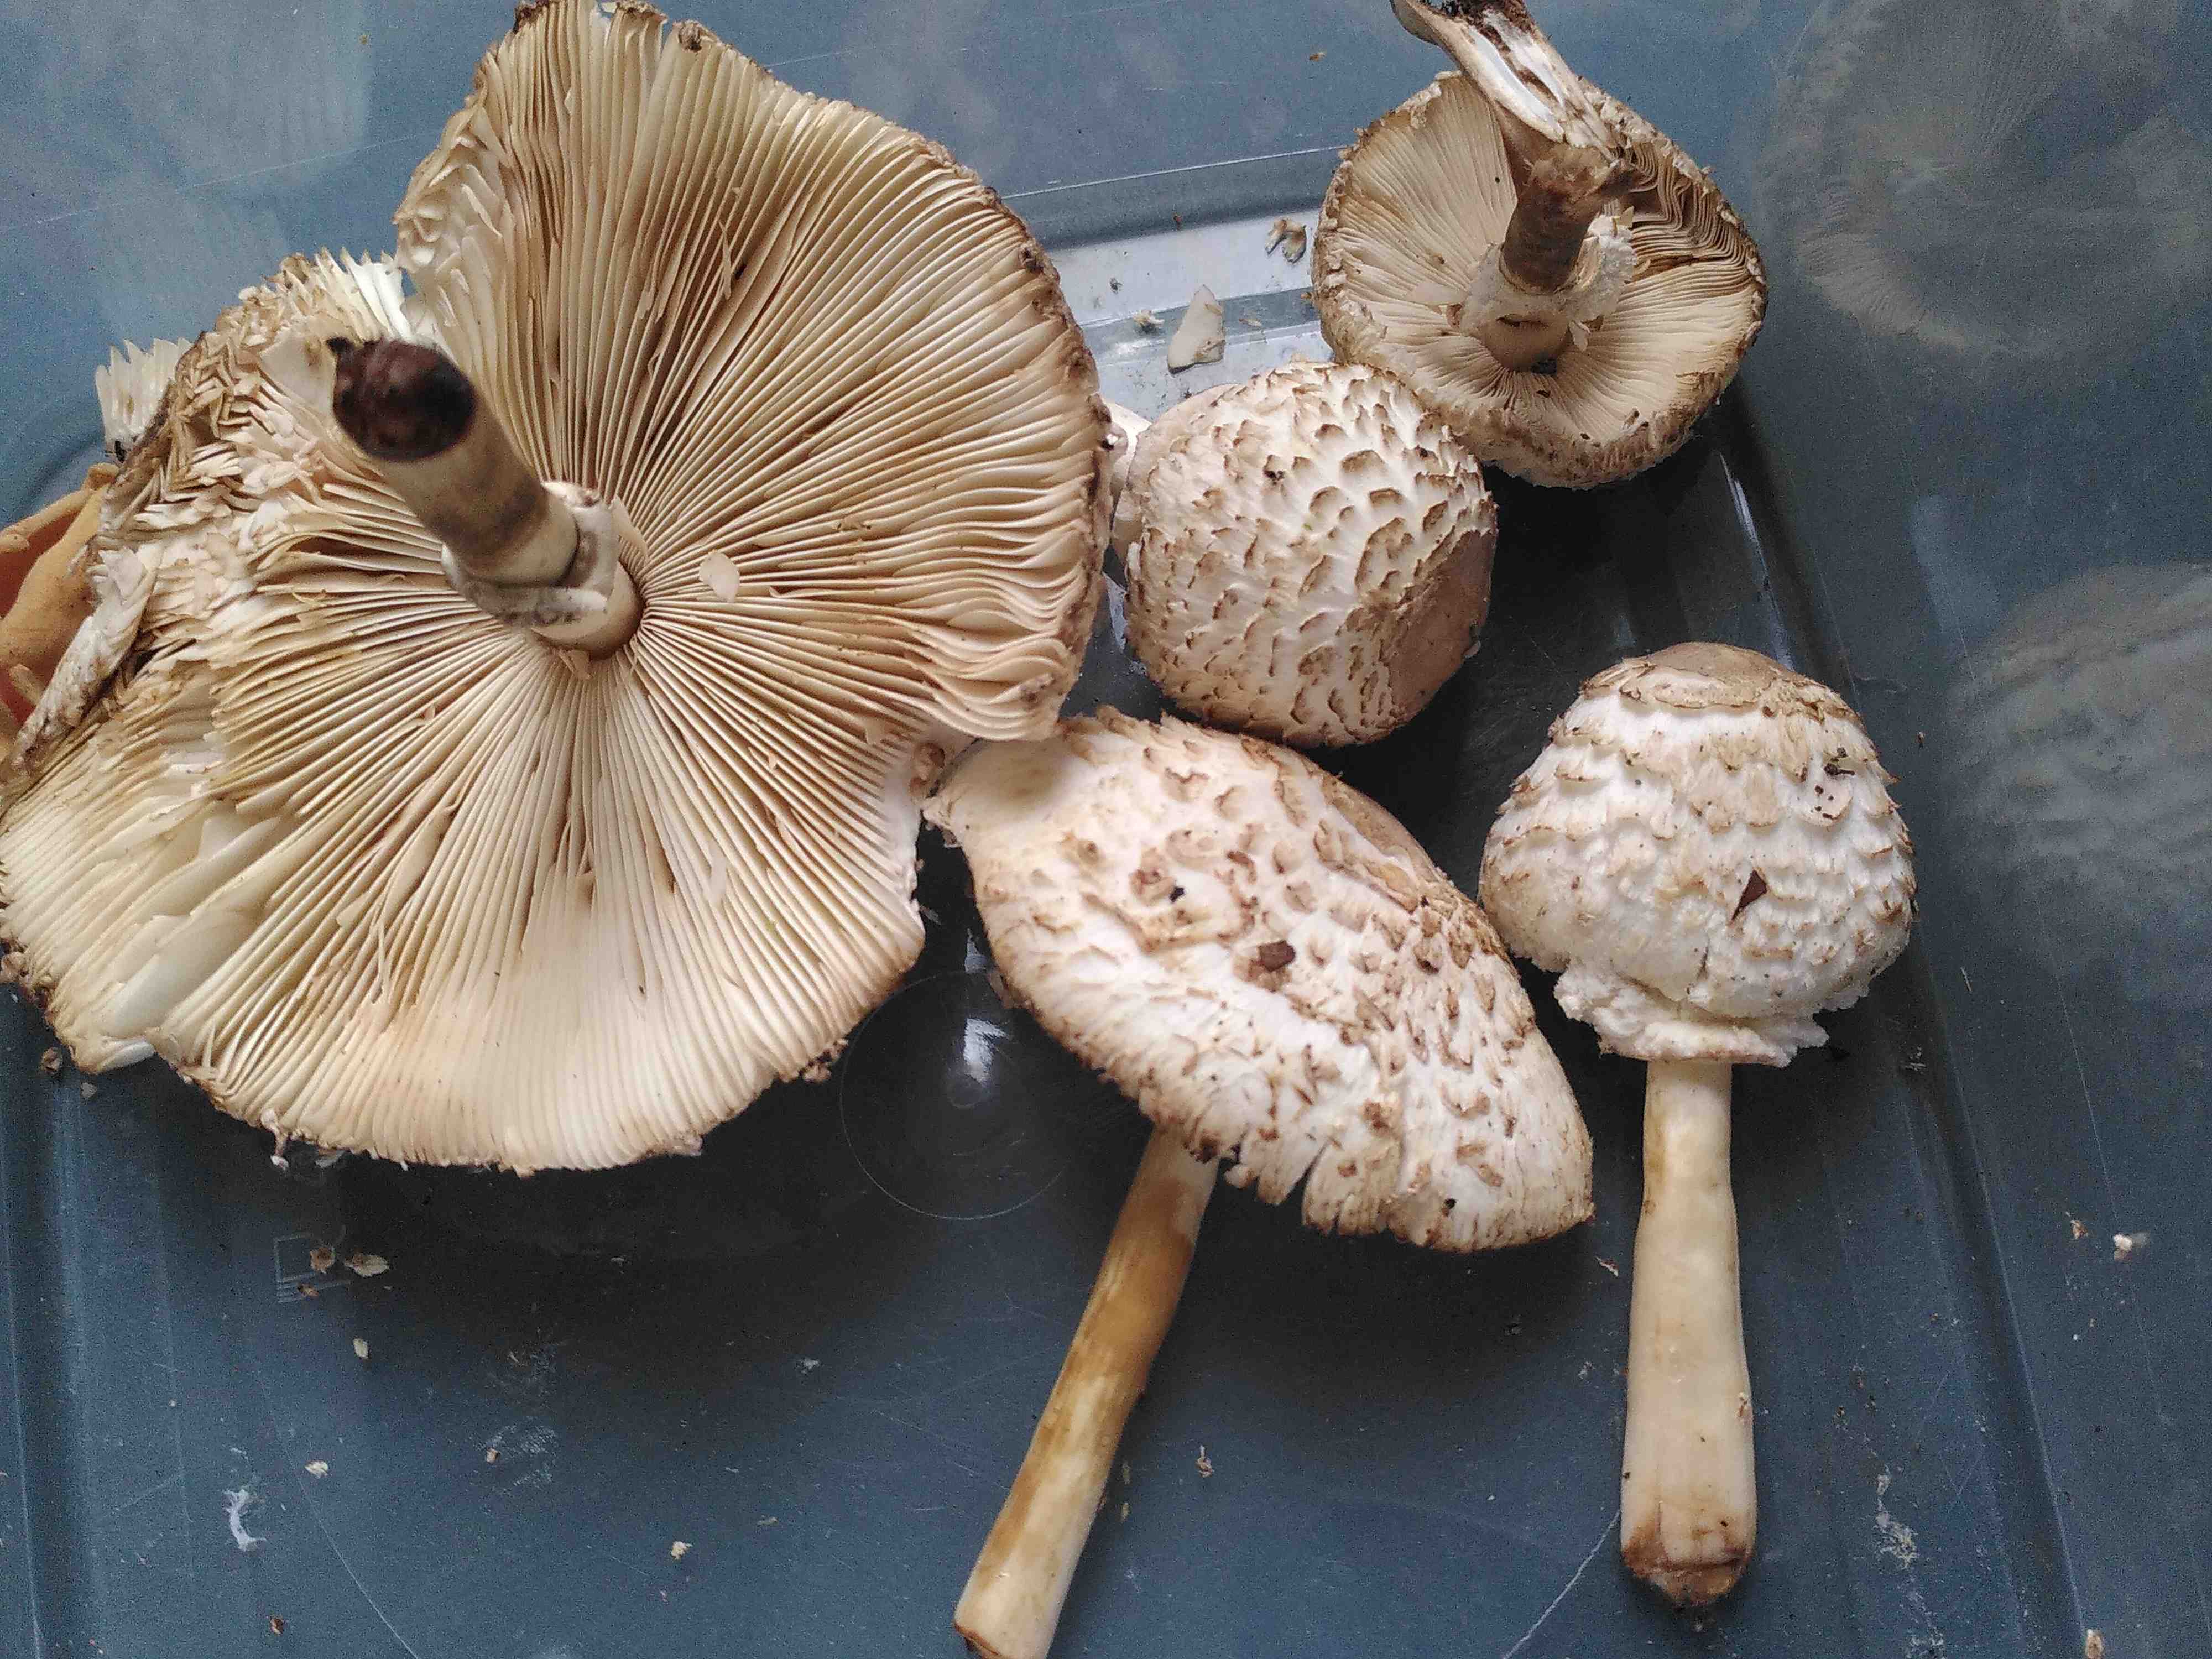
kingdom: Fungi
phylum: Basidiomycota
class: Agaricomycetes
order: Agaricales
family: Agaricaceae
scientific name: Agaricaceae
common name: champignonfamilien
